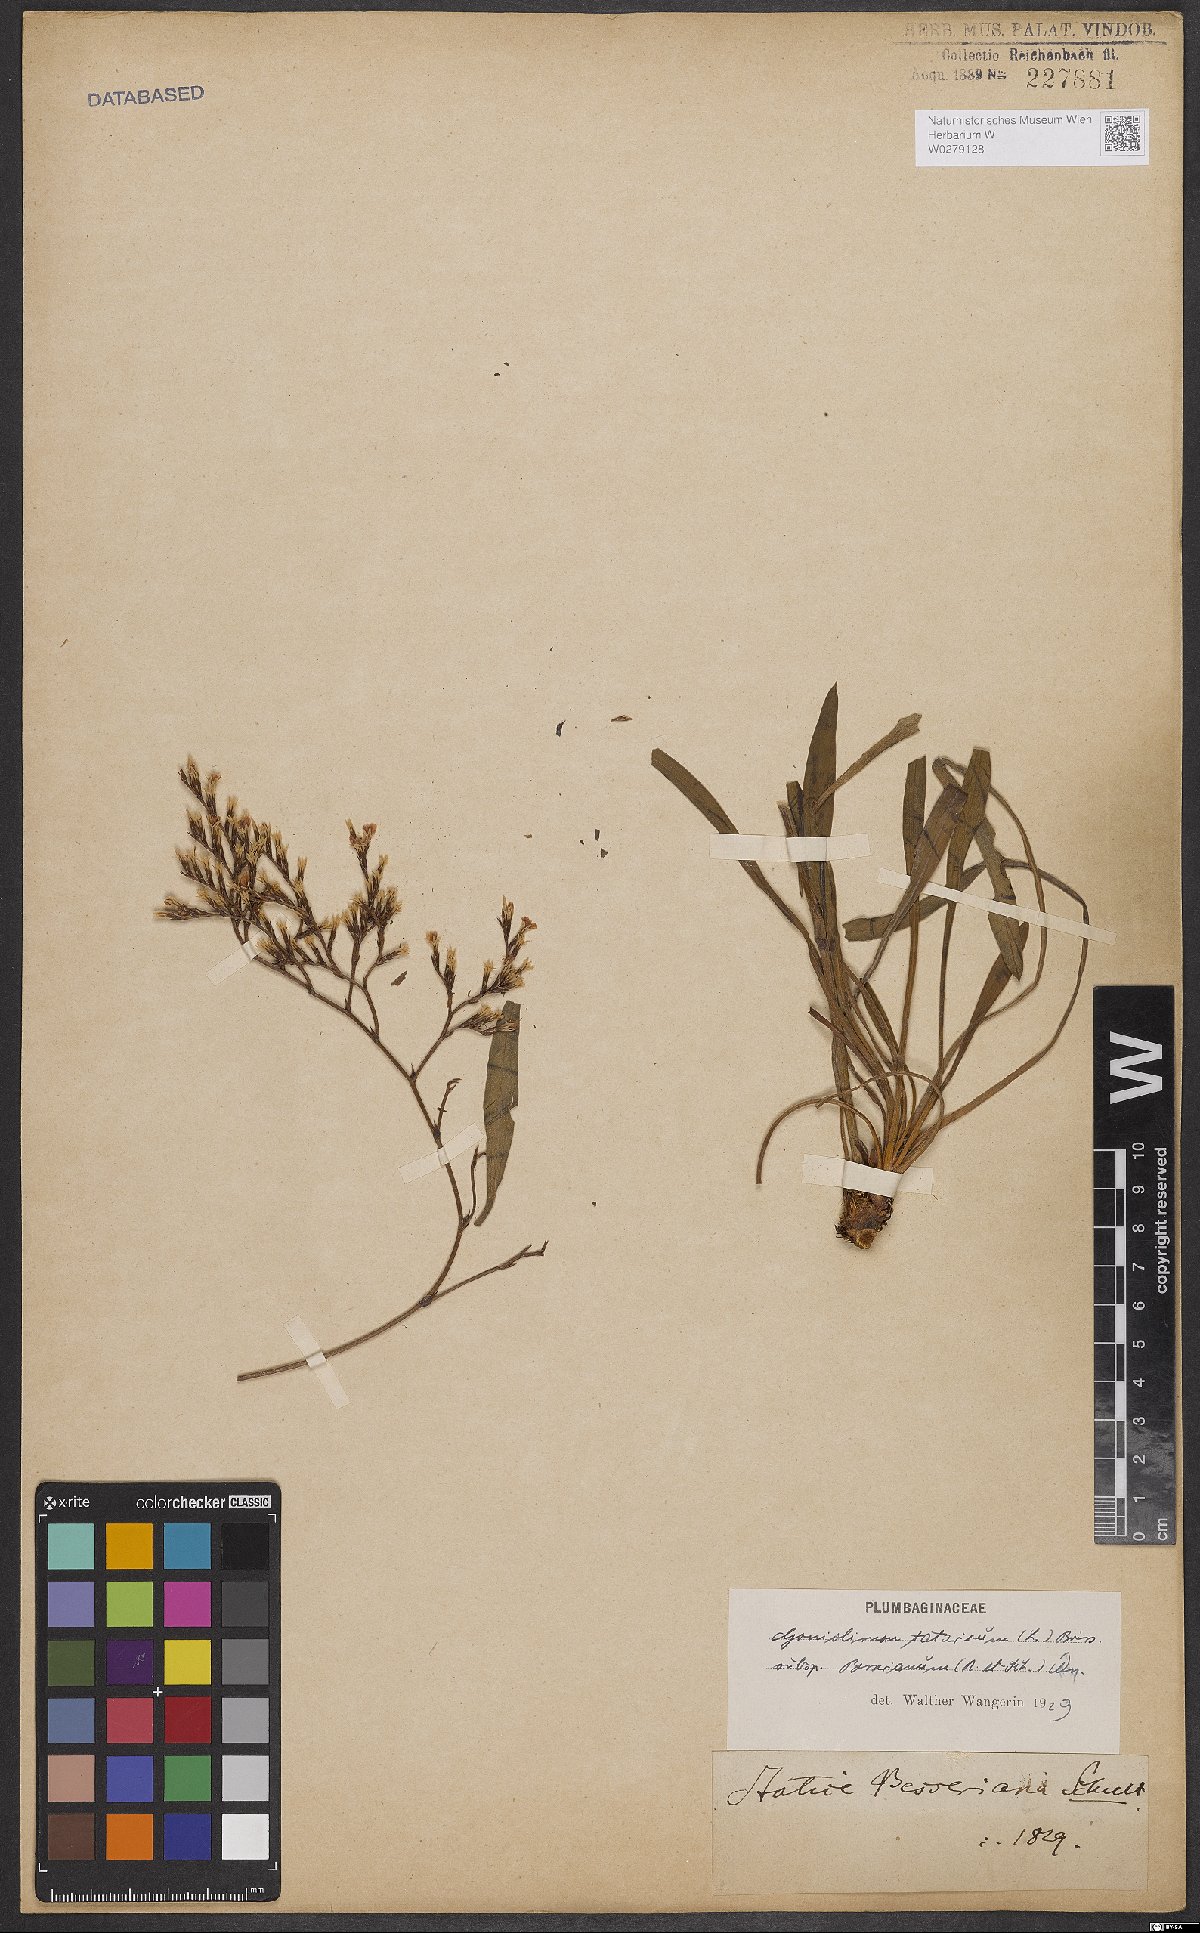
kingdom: Plantae
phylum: Tracheophyta
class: Magnoliopsida
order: Caryophyllales
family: Plumbaginaceae
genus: Goniolimon
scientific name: Goniolimon besserianum
